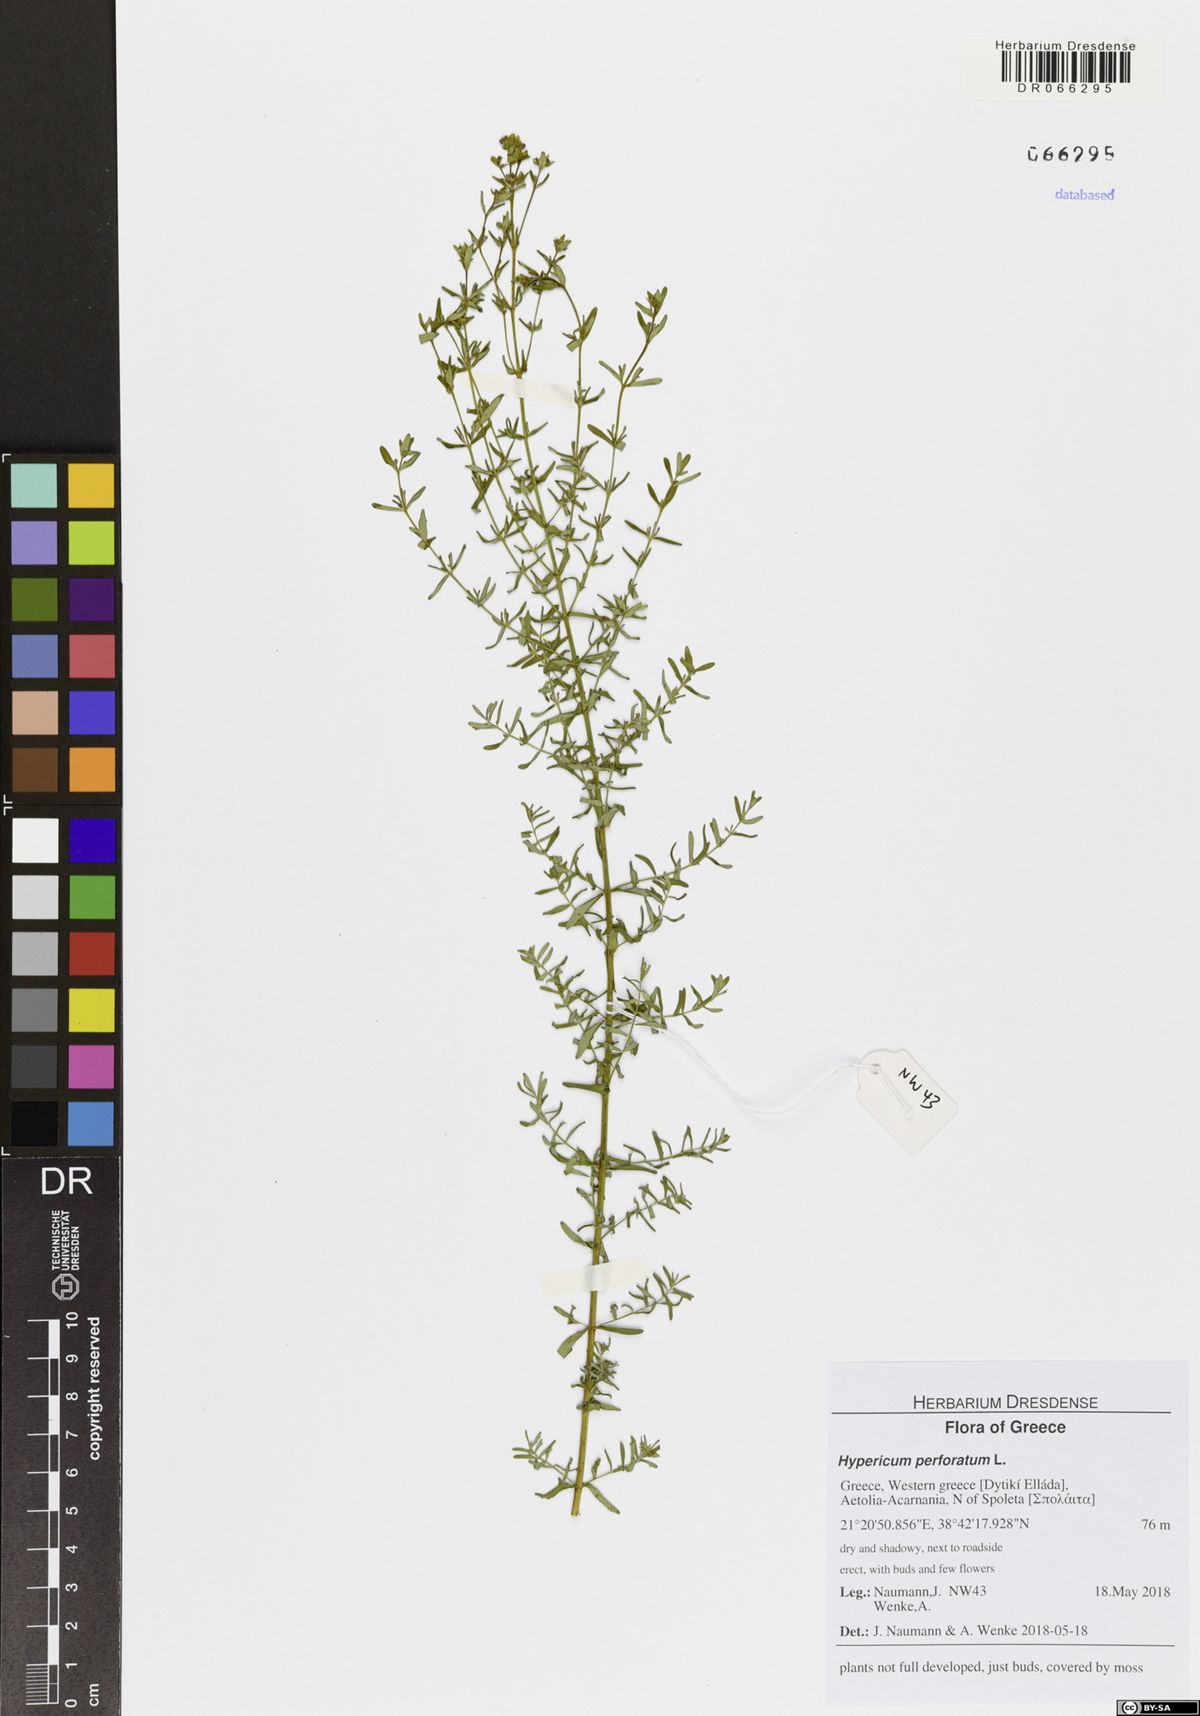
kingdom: Plantae
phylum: Tracheophyta
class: Magnoliopsida
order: Malpighiales
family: Hypericaceae
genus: Hypericum
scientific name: Hypericum perforatum
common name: Common st. johnswort
